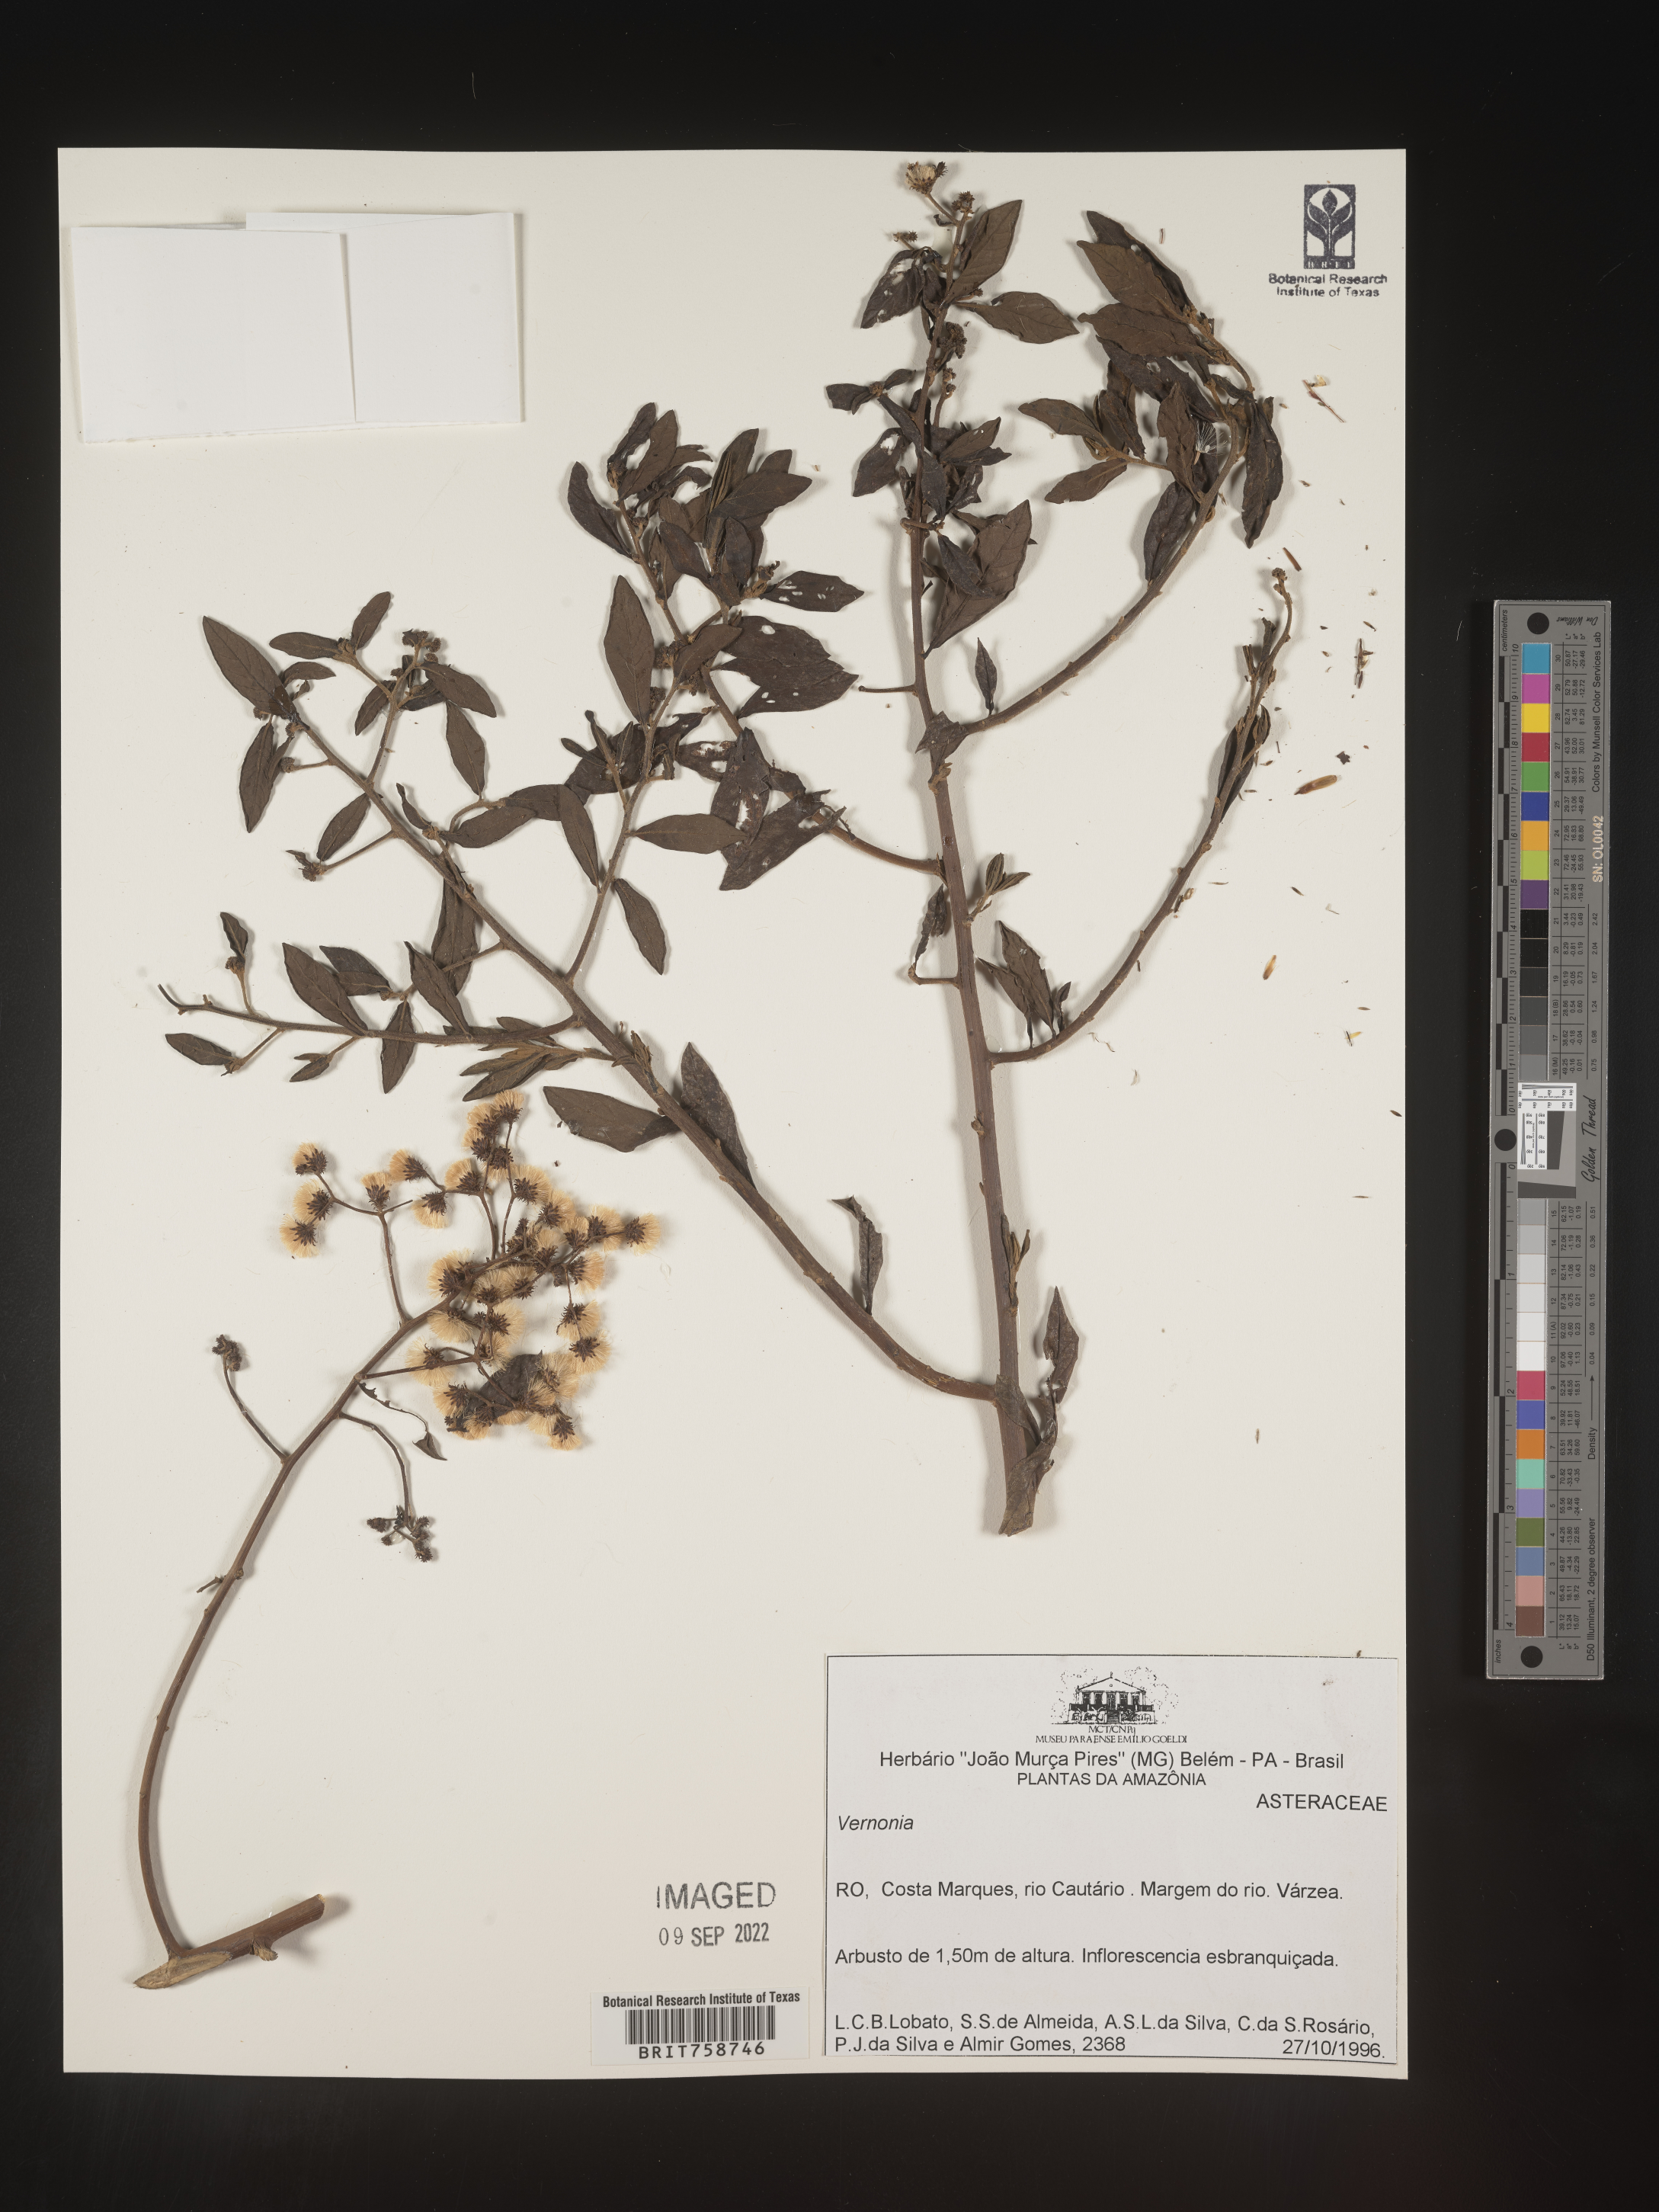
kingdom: Plantae
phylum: Tracheophyta
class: Magnoliopsida
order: Asterales
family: Asteraceae
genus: Vernonia
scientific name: Vernonia
